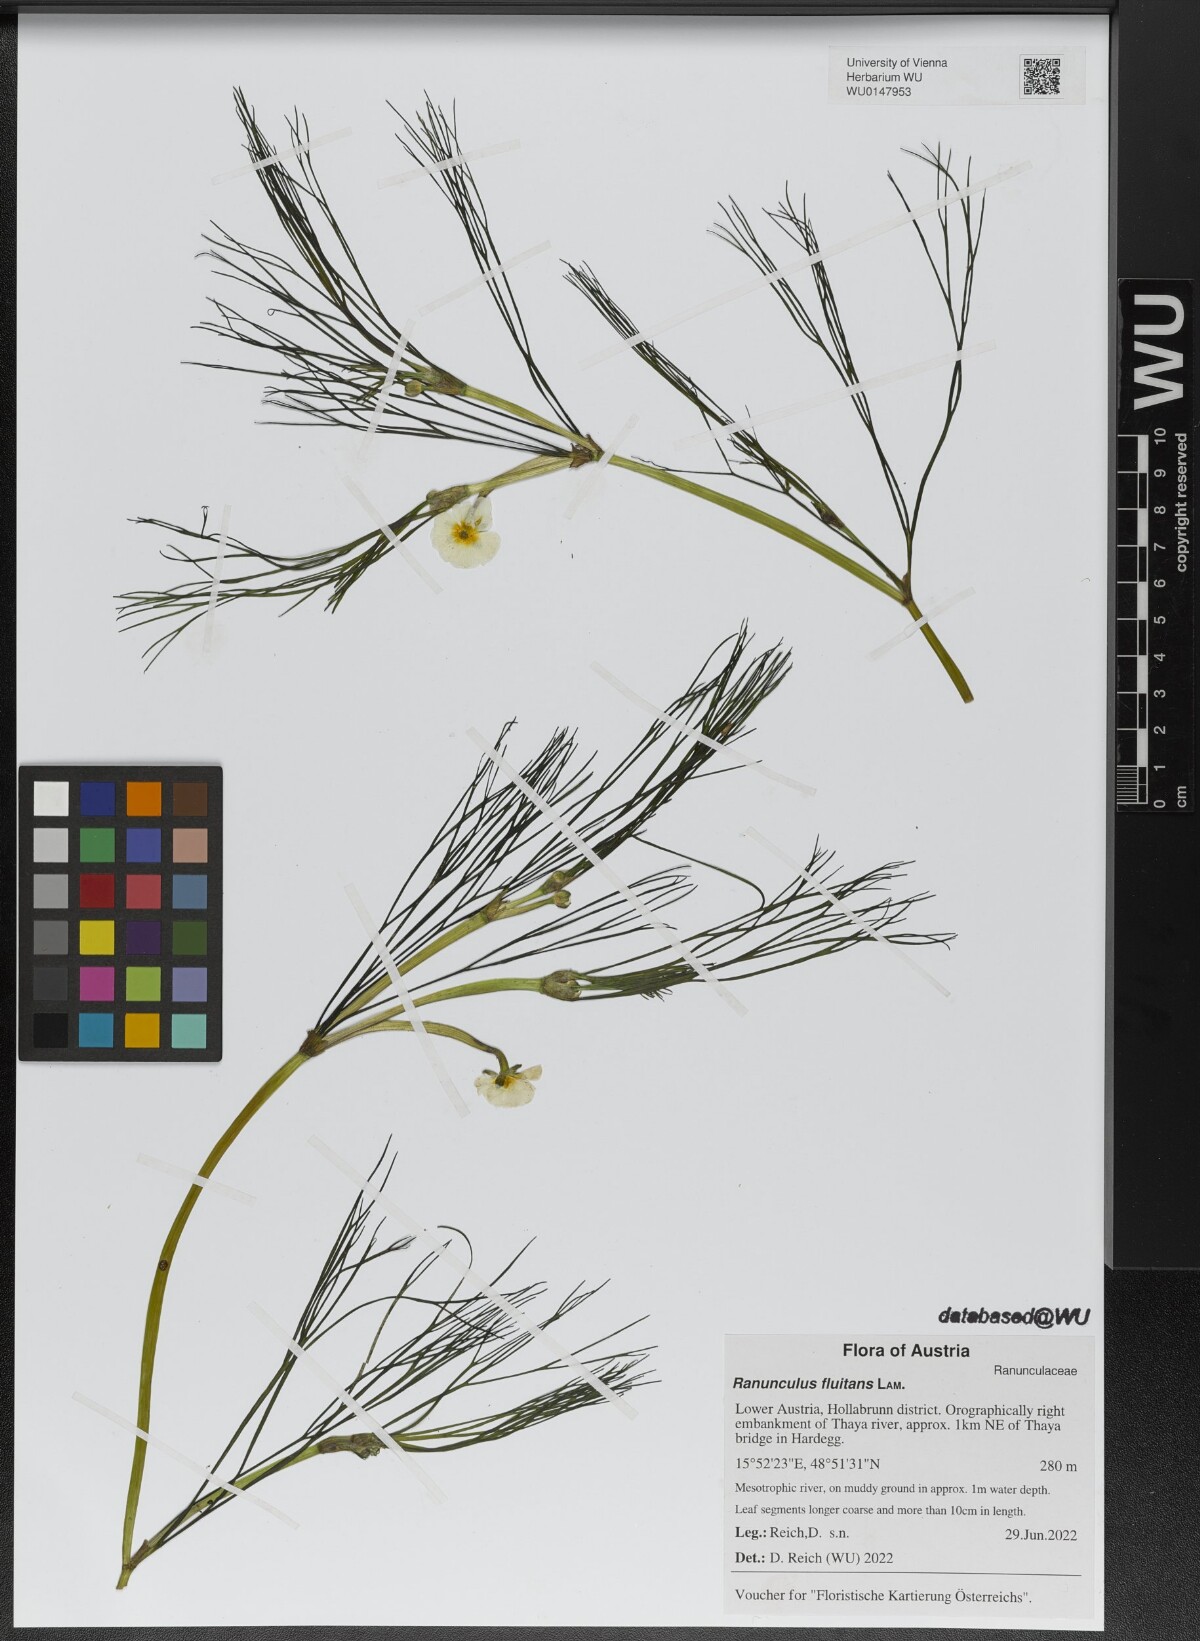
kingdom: Plantae
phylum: Tracheophyta
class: Magnoliopsida
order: Ranunculales
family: Ranunculaceae
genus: Ranunculus
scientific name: Ranunculus fluitans
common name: River water-crowfoot
